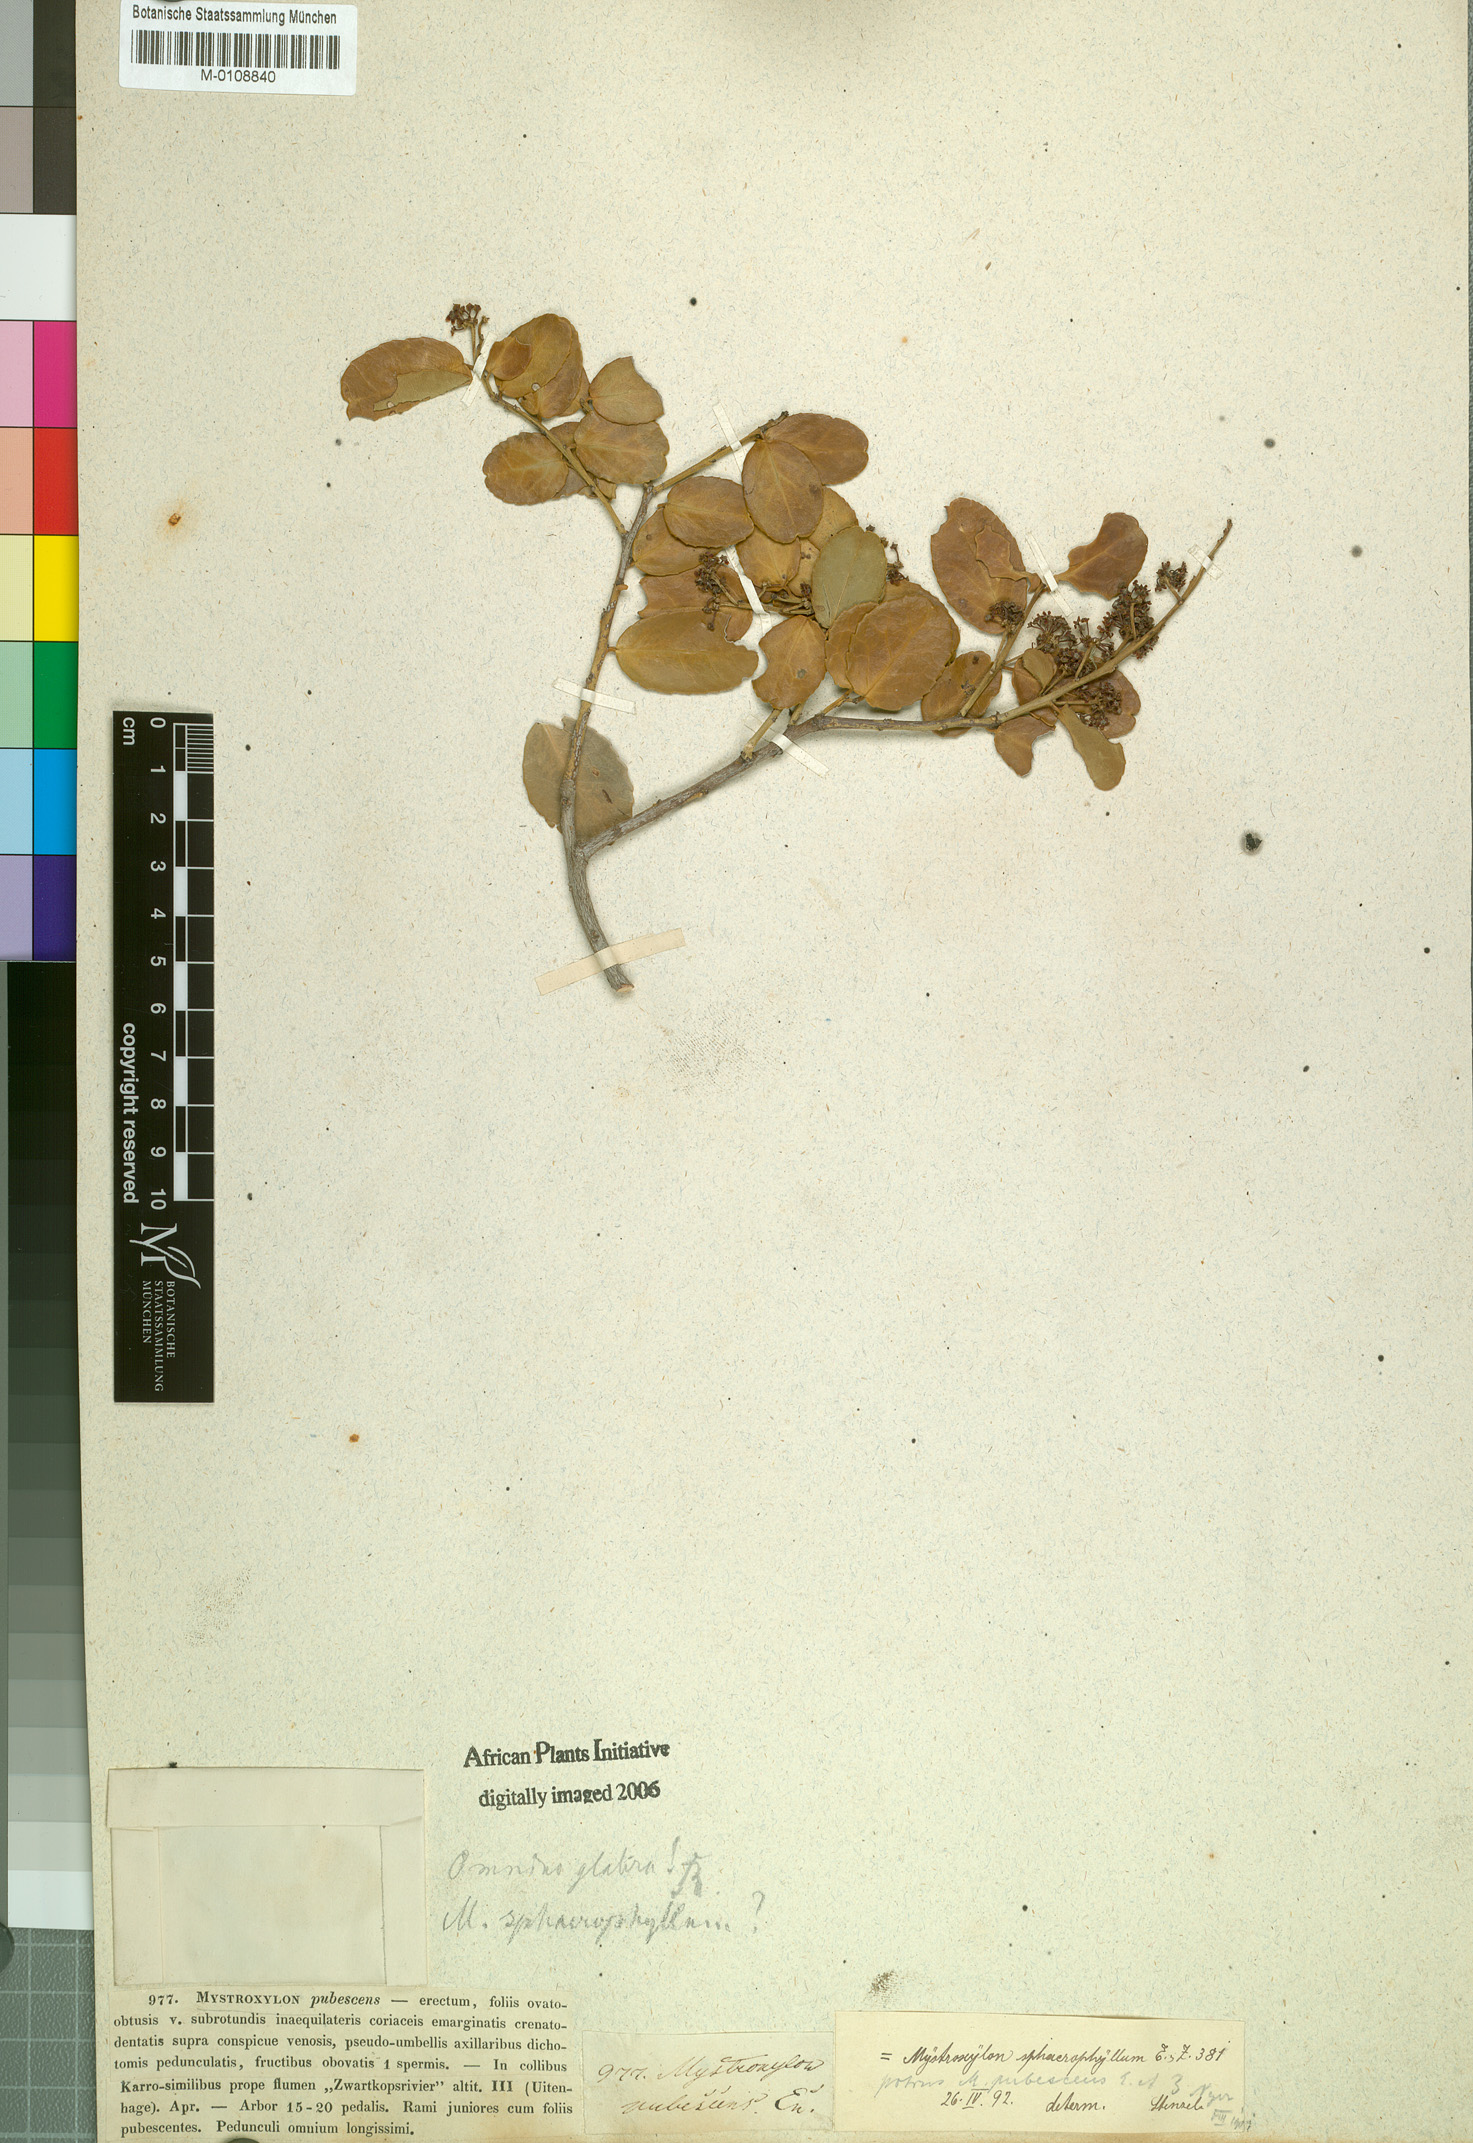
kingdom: Plantae
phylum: Tracheophyta
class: Magnoliopsida
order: Celastrales
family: Celastraceae
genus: Mystroxylon
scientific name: Mystroxylon aethiopicum
